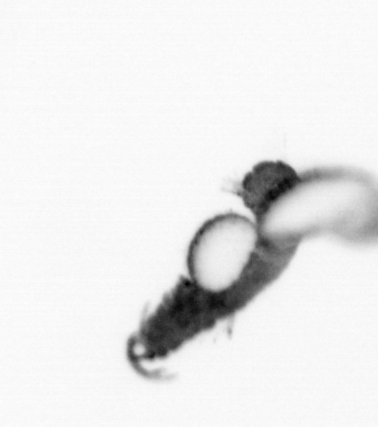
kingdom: Animalia
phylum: Annelida
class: Polychaeta
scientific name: Polychaeta
